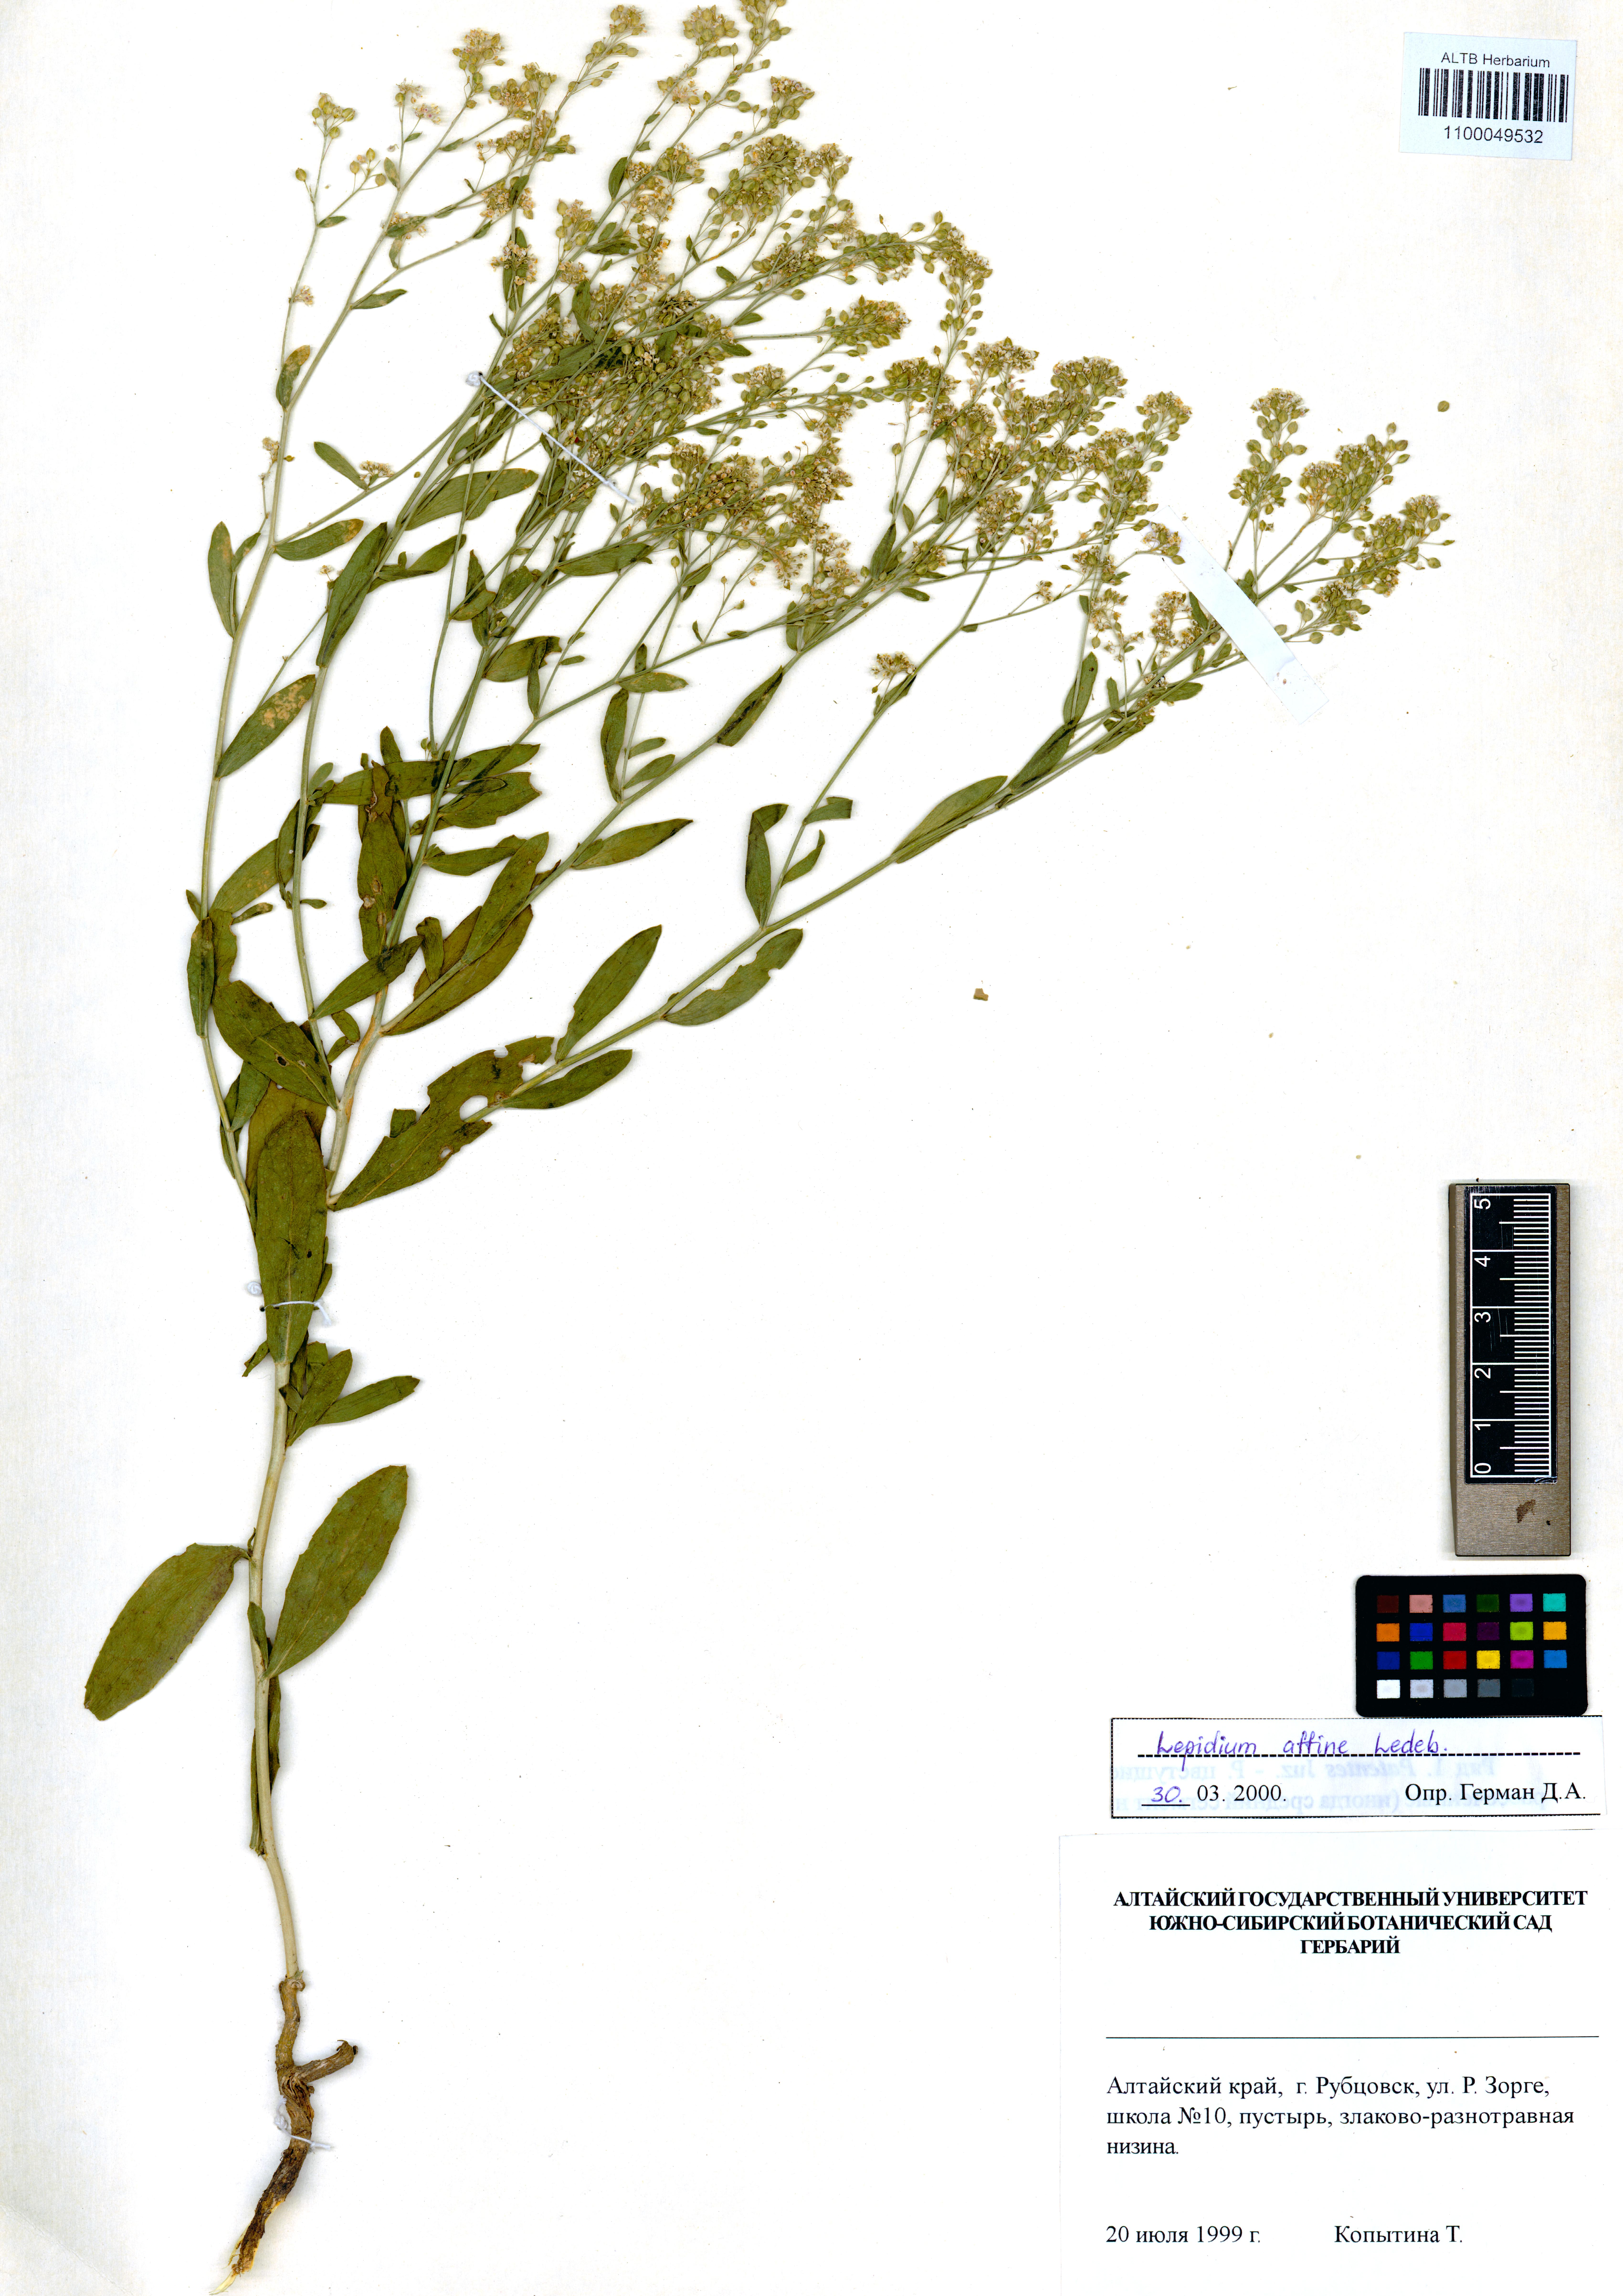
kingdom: Plantae
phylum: Tracheophyta
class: Magnoliopsida
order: Brassicales
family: Brassicaceae
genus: Lepidium
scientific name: Lepidium latifolium
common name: Dittander
